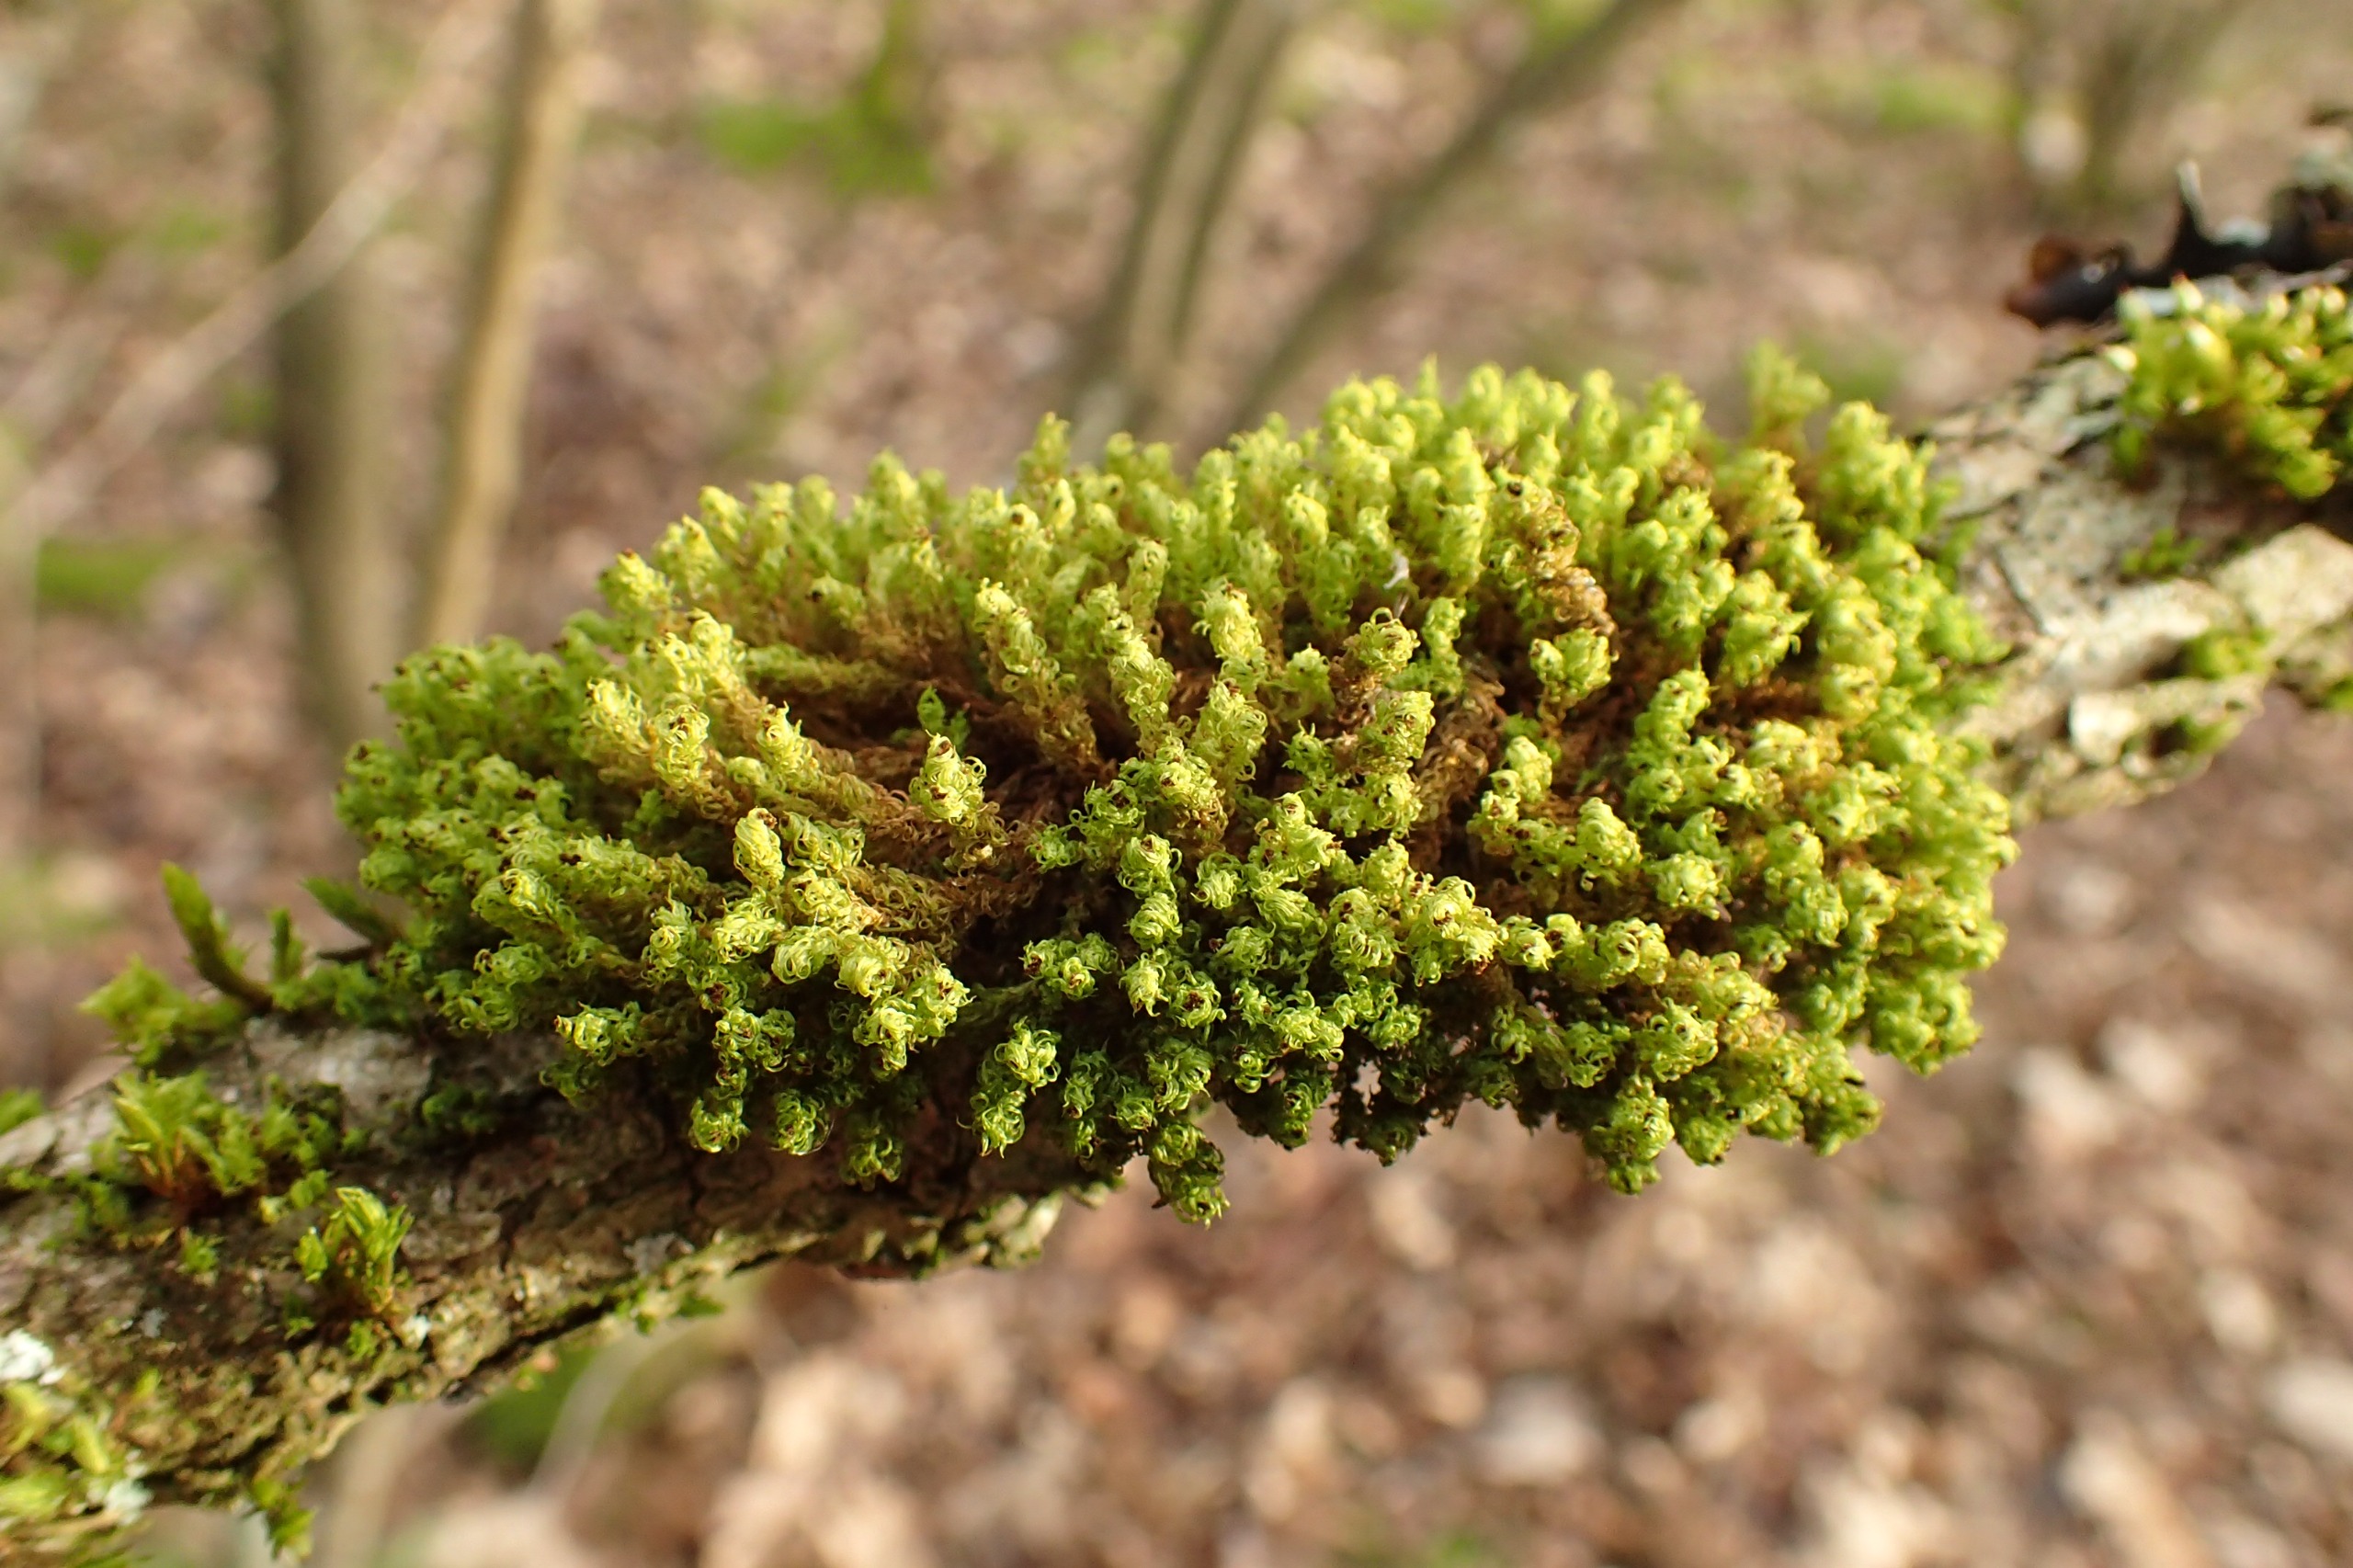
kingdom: Plantae
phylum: Bryophyta
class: Bryopsida
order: Orthotrichales
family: Orthotrichaceae
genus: Plenogemma
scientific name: Plenogemma phyllantha
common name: Stor låddenhætte
